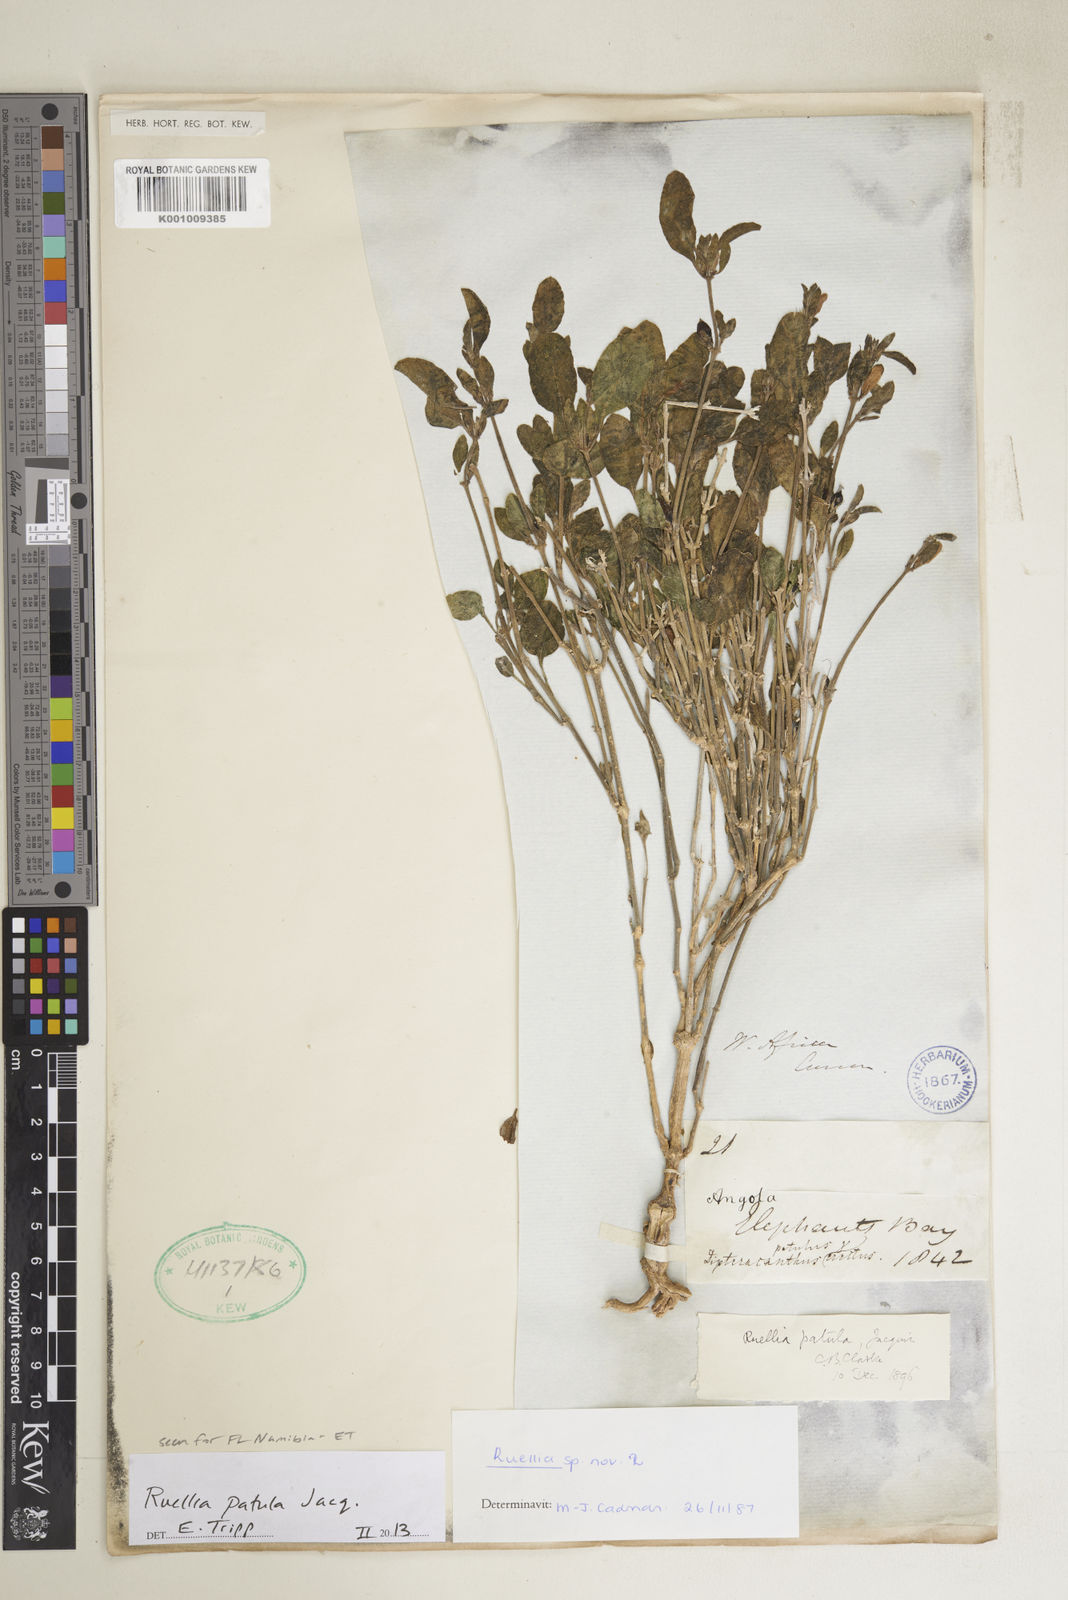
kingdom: Plantae
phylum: Tracheophyta
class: Magnoliopsida
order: Lamiales
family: Acanthaceae
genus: Ruellia
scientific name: Ruellia patula
